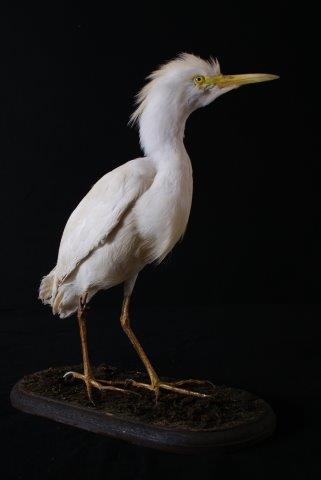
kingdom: Animalia
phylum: Chordata
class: Aves
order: Pelecaniformes
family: Ardeidae
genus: Bubulcus
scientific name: Bubulcus ibis
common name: Cattle egret
